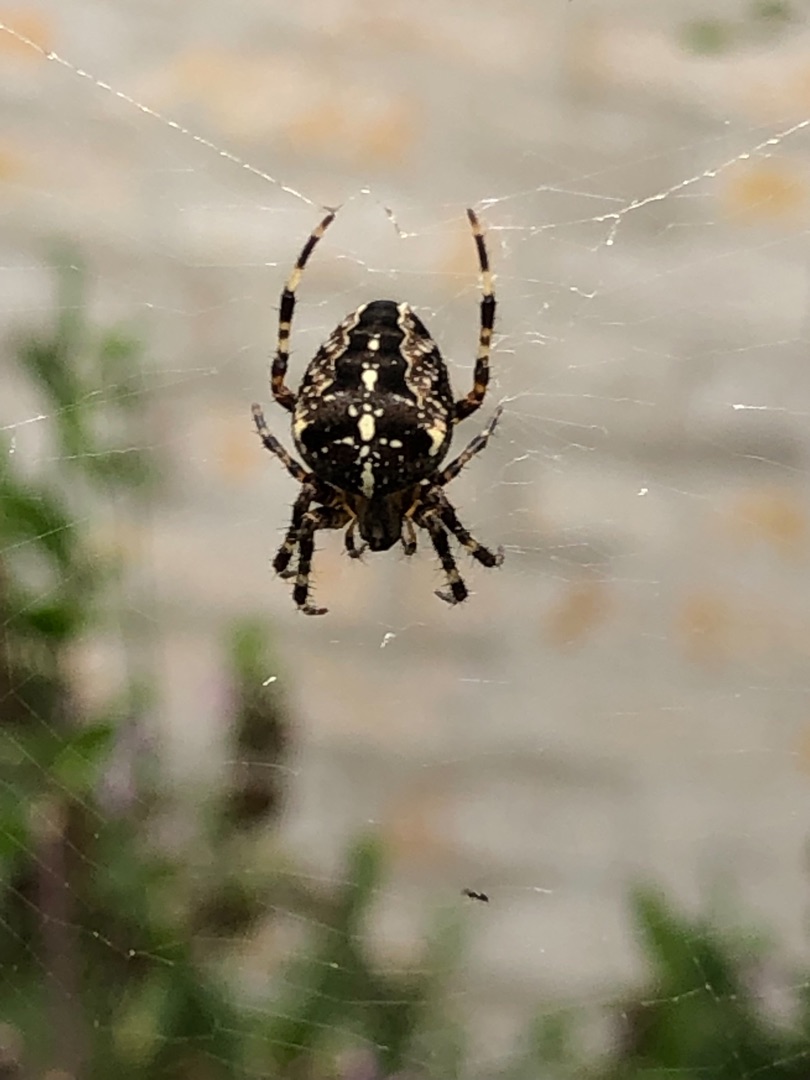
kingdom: Animalia
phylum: Arthropoda
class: Arachnida
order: Araneae
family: Araneidae
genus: Araneus
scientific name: Araneus diadematus
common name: Korsedderkop
